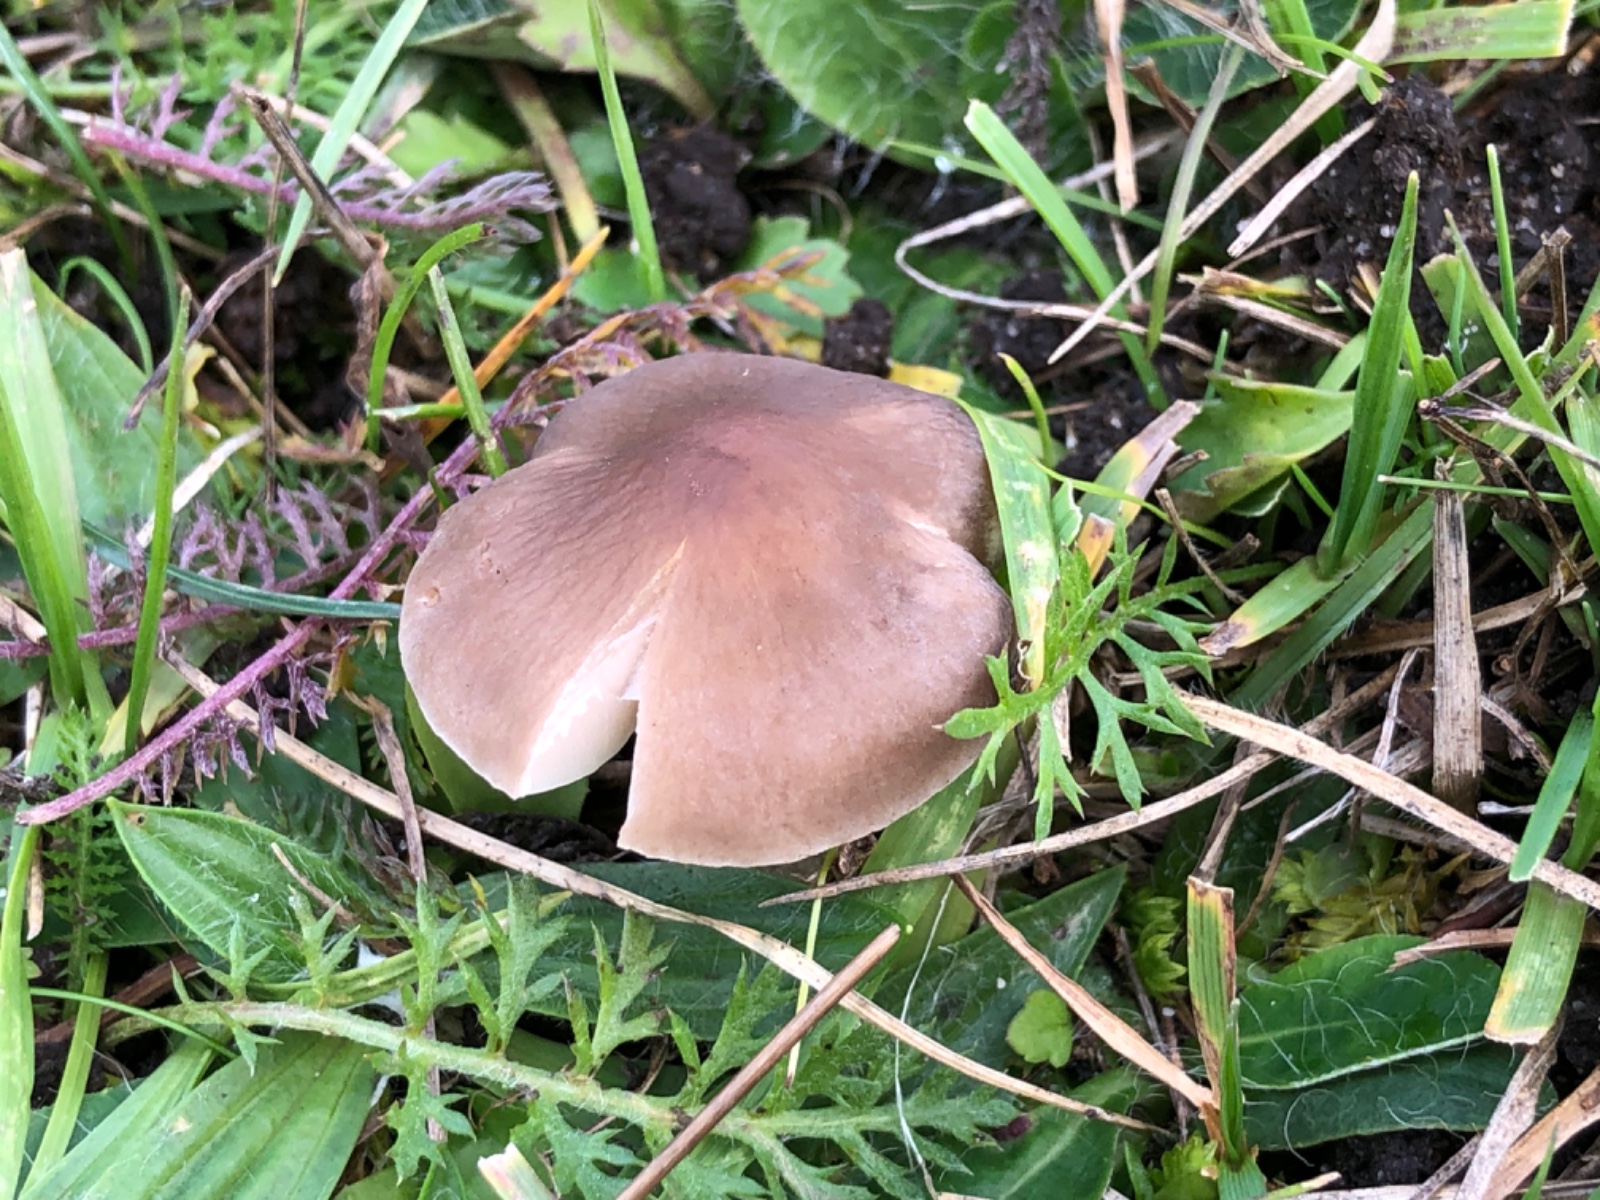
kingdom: Fungi
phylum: Basidiomycota
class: Agaricomycetes
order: Agaricales
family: Tricholomataceae
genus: Dermoloma
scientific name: Dermoloma cuneifolium
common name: eng-nonnehat
